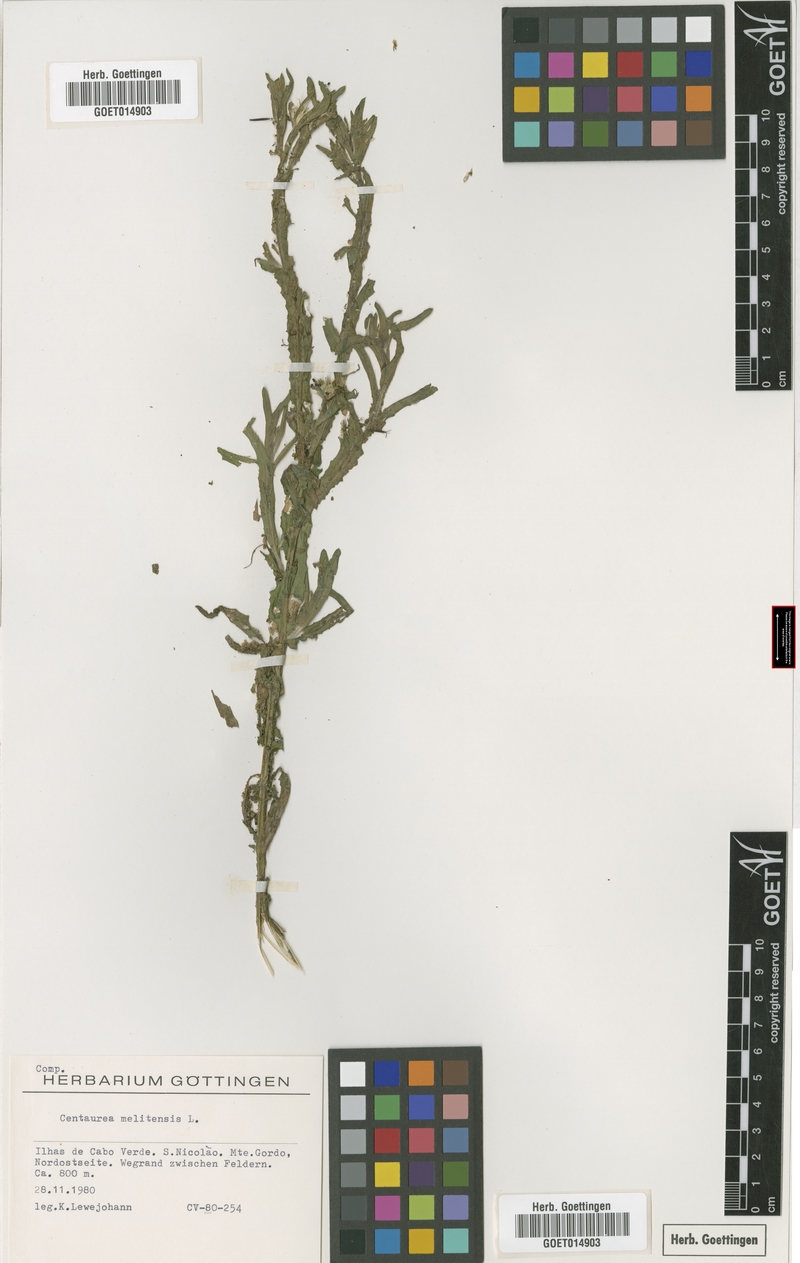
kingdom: Plantae
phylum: Tracheophyta
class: Magnoliopsida
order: Asterales
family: Asteraceae
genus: Centaurea
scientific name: Centaurea melitensis
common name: Maltese star-thistle
